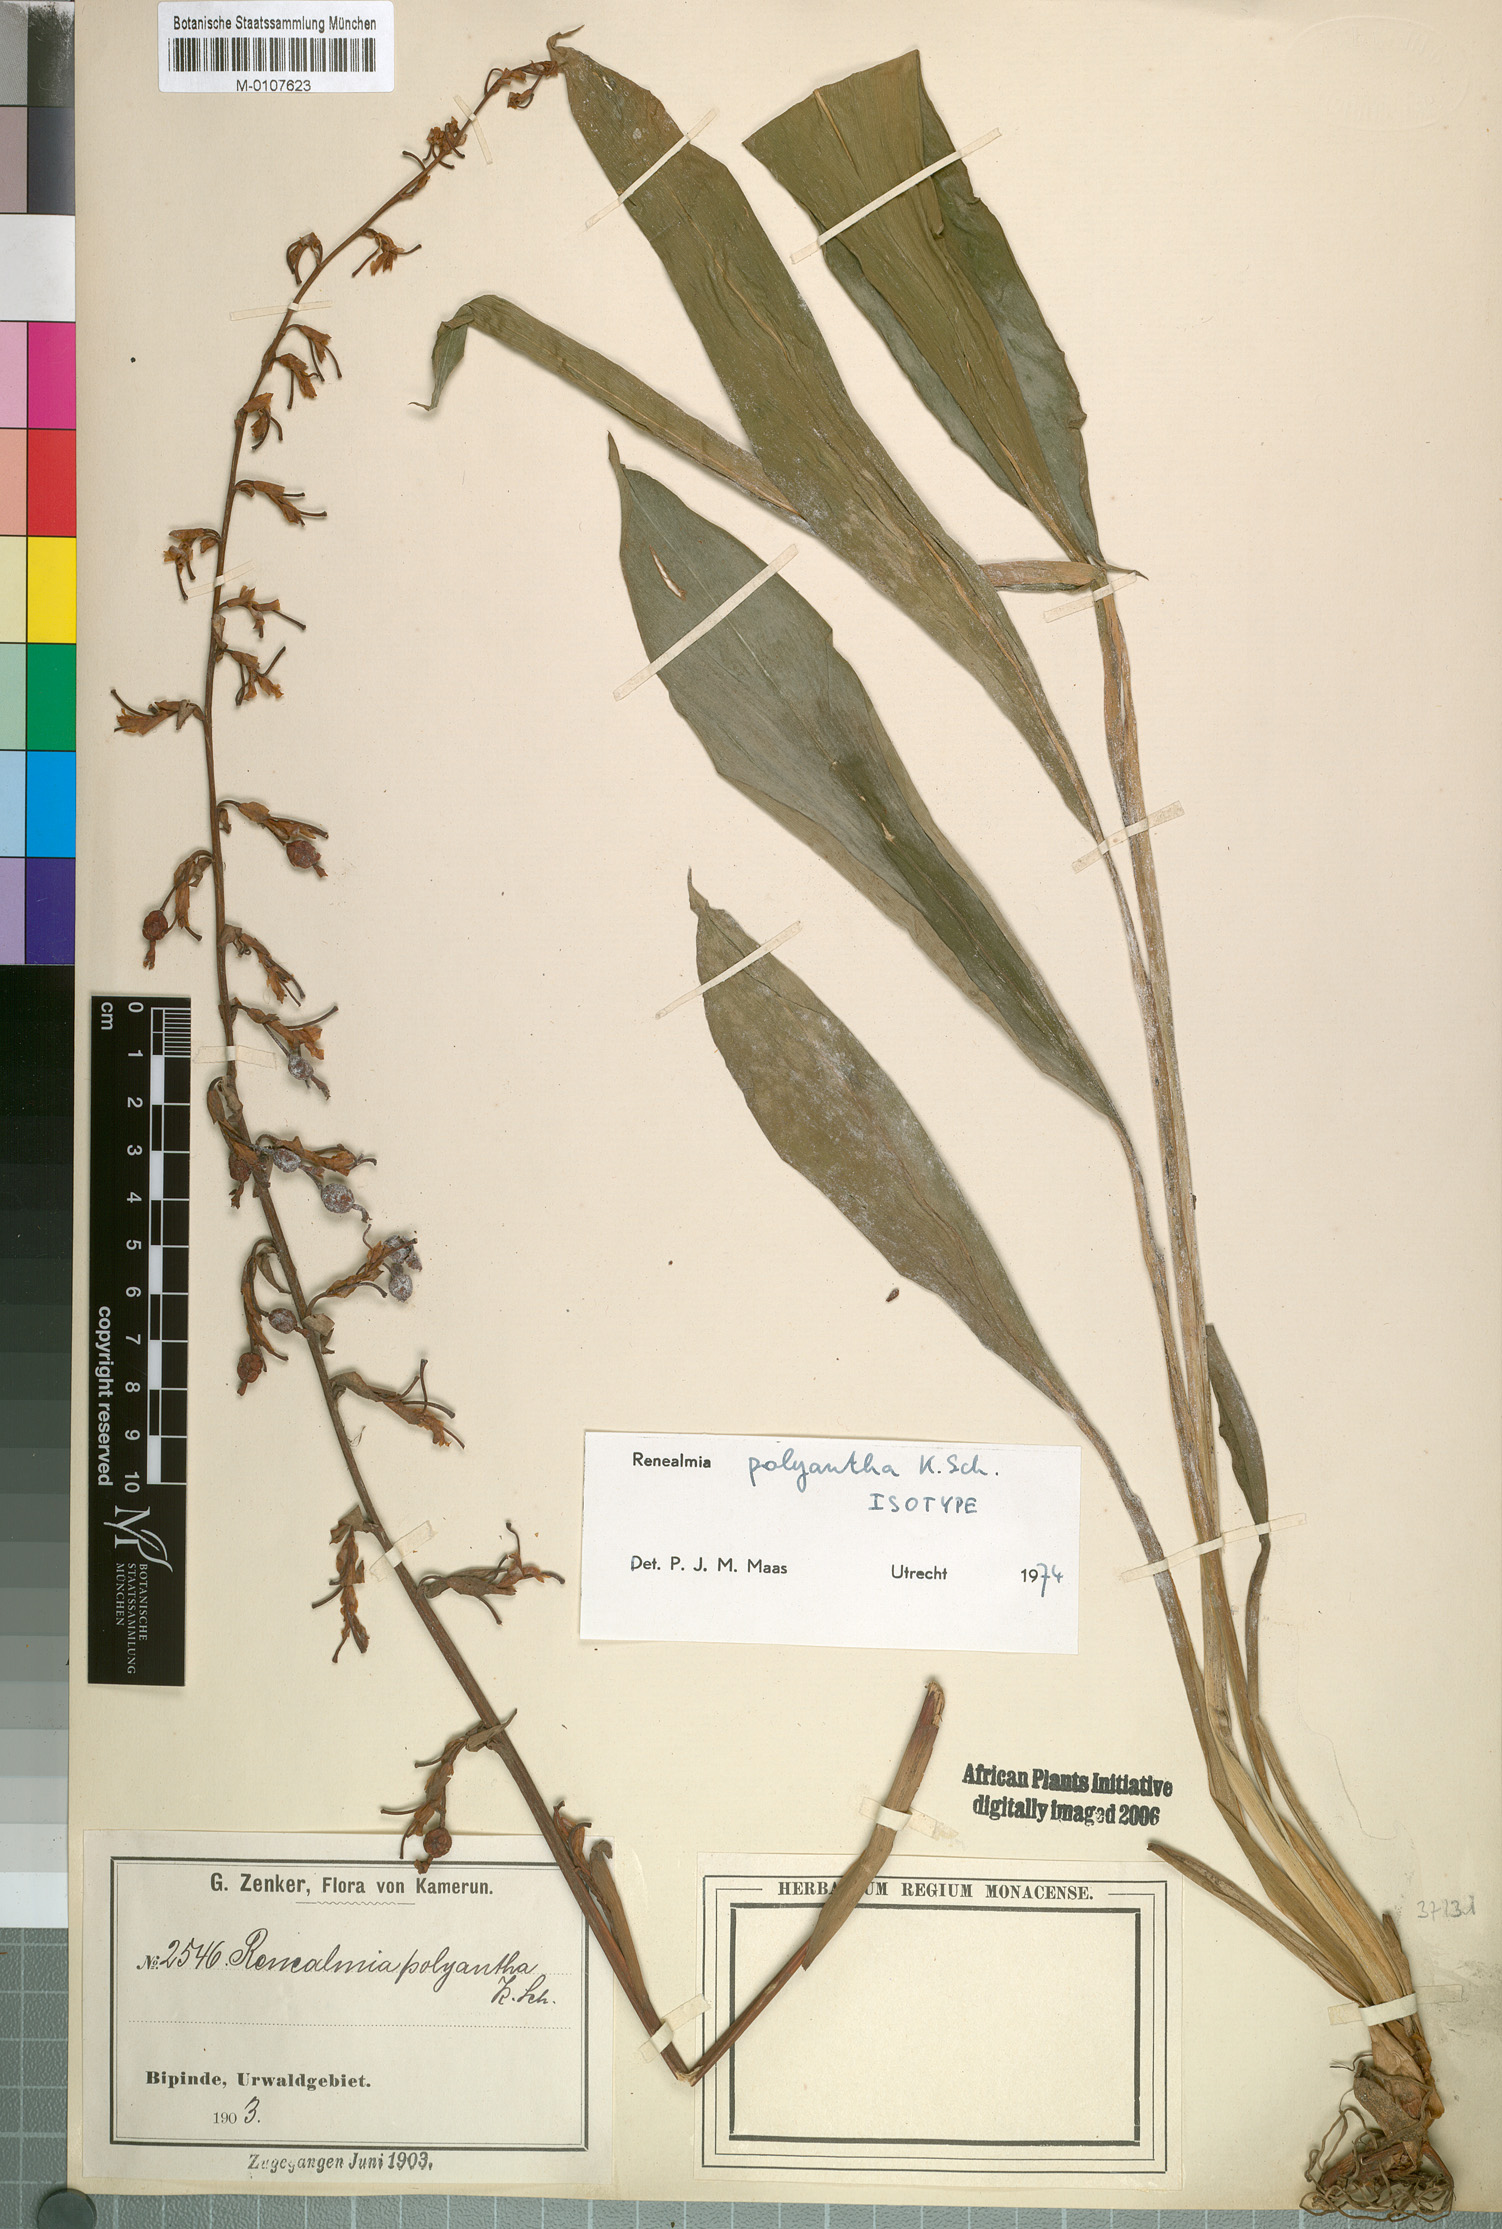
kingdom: Plantae
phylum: Tracheophyta
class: Liliopsida
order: Zingiberales
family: Zingiberaceae
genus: Renealmia
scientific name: Renealmia polyantha
